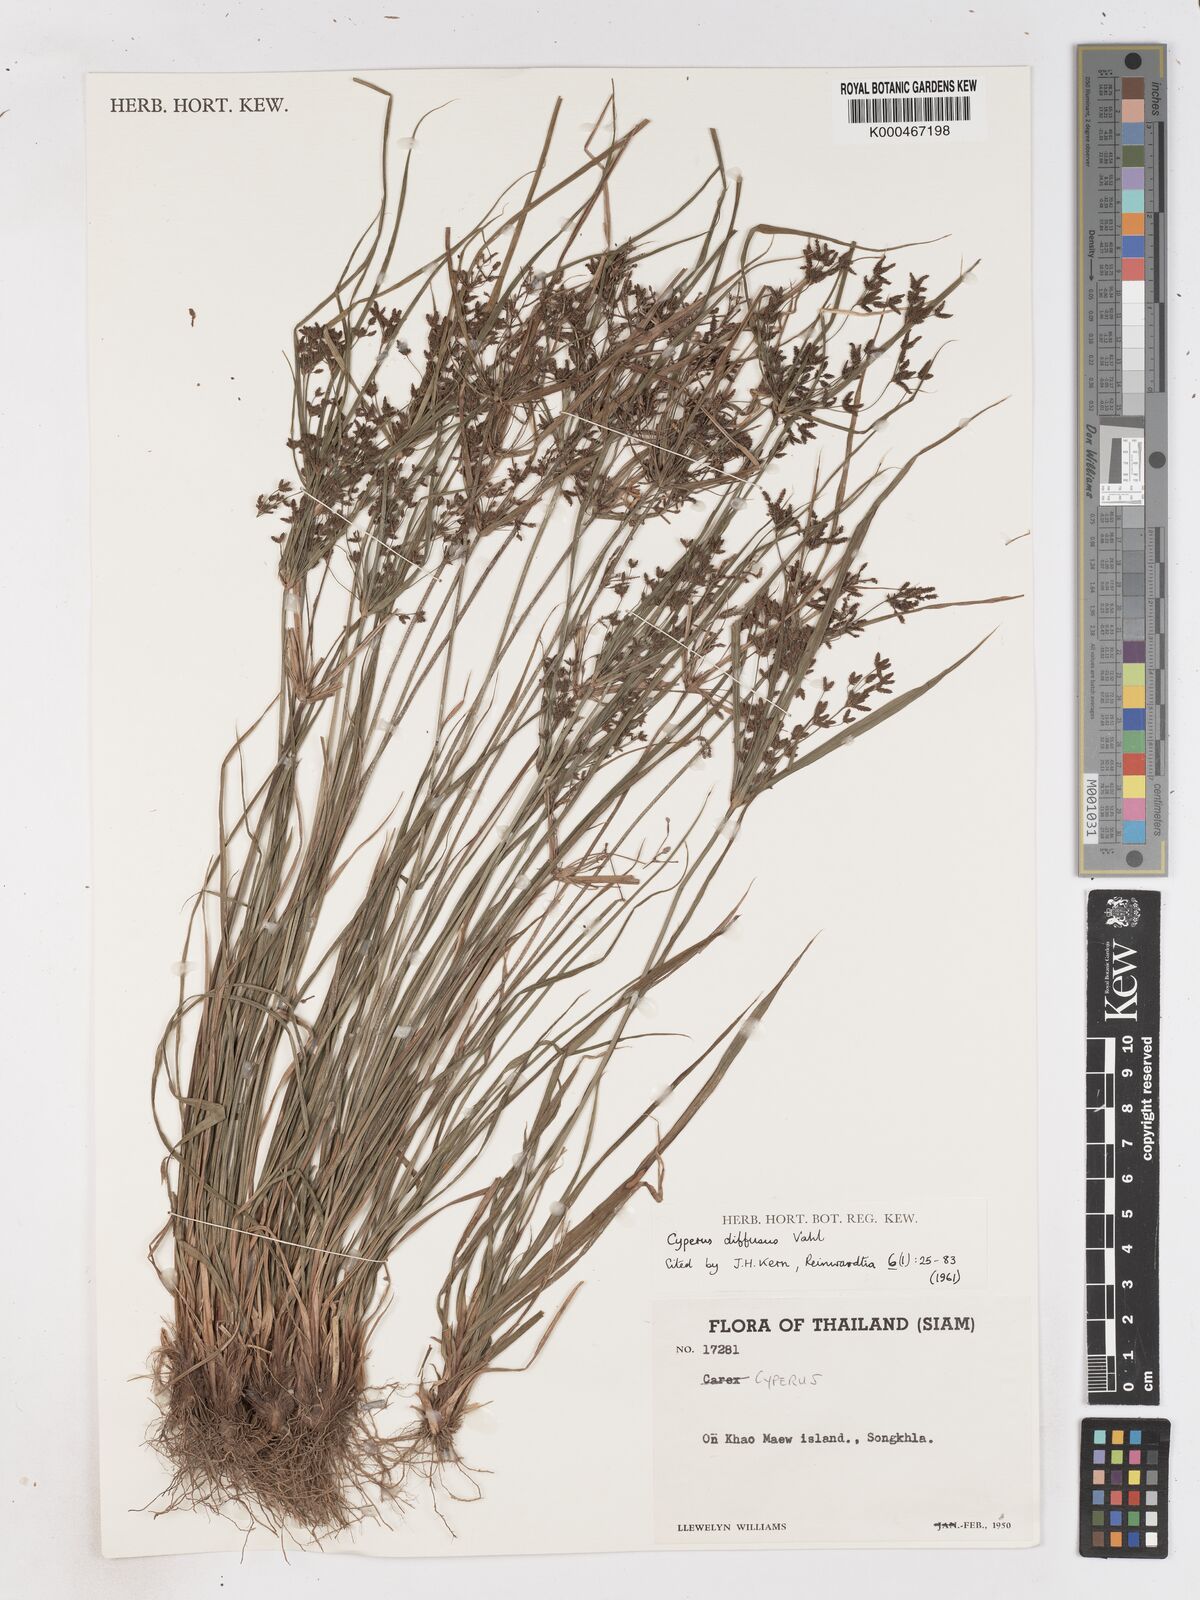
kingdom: Plantae
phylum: Tracheophyta
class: Liliopsida
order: Poales
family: Cyperaceae
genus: Cyperus
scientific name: Cyperus diffusus
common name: Dwarf umbrella grass
